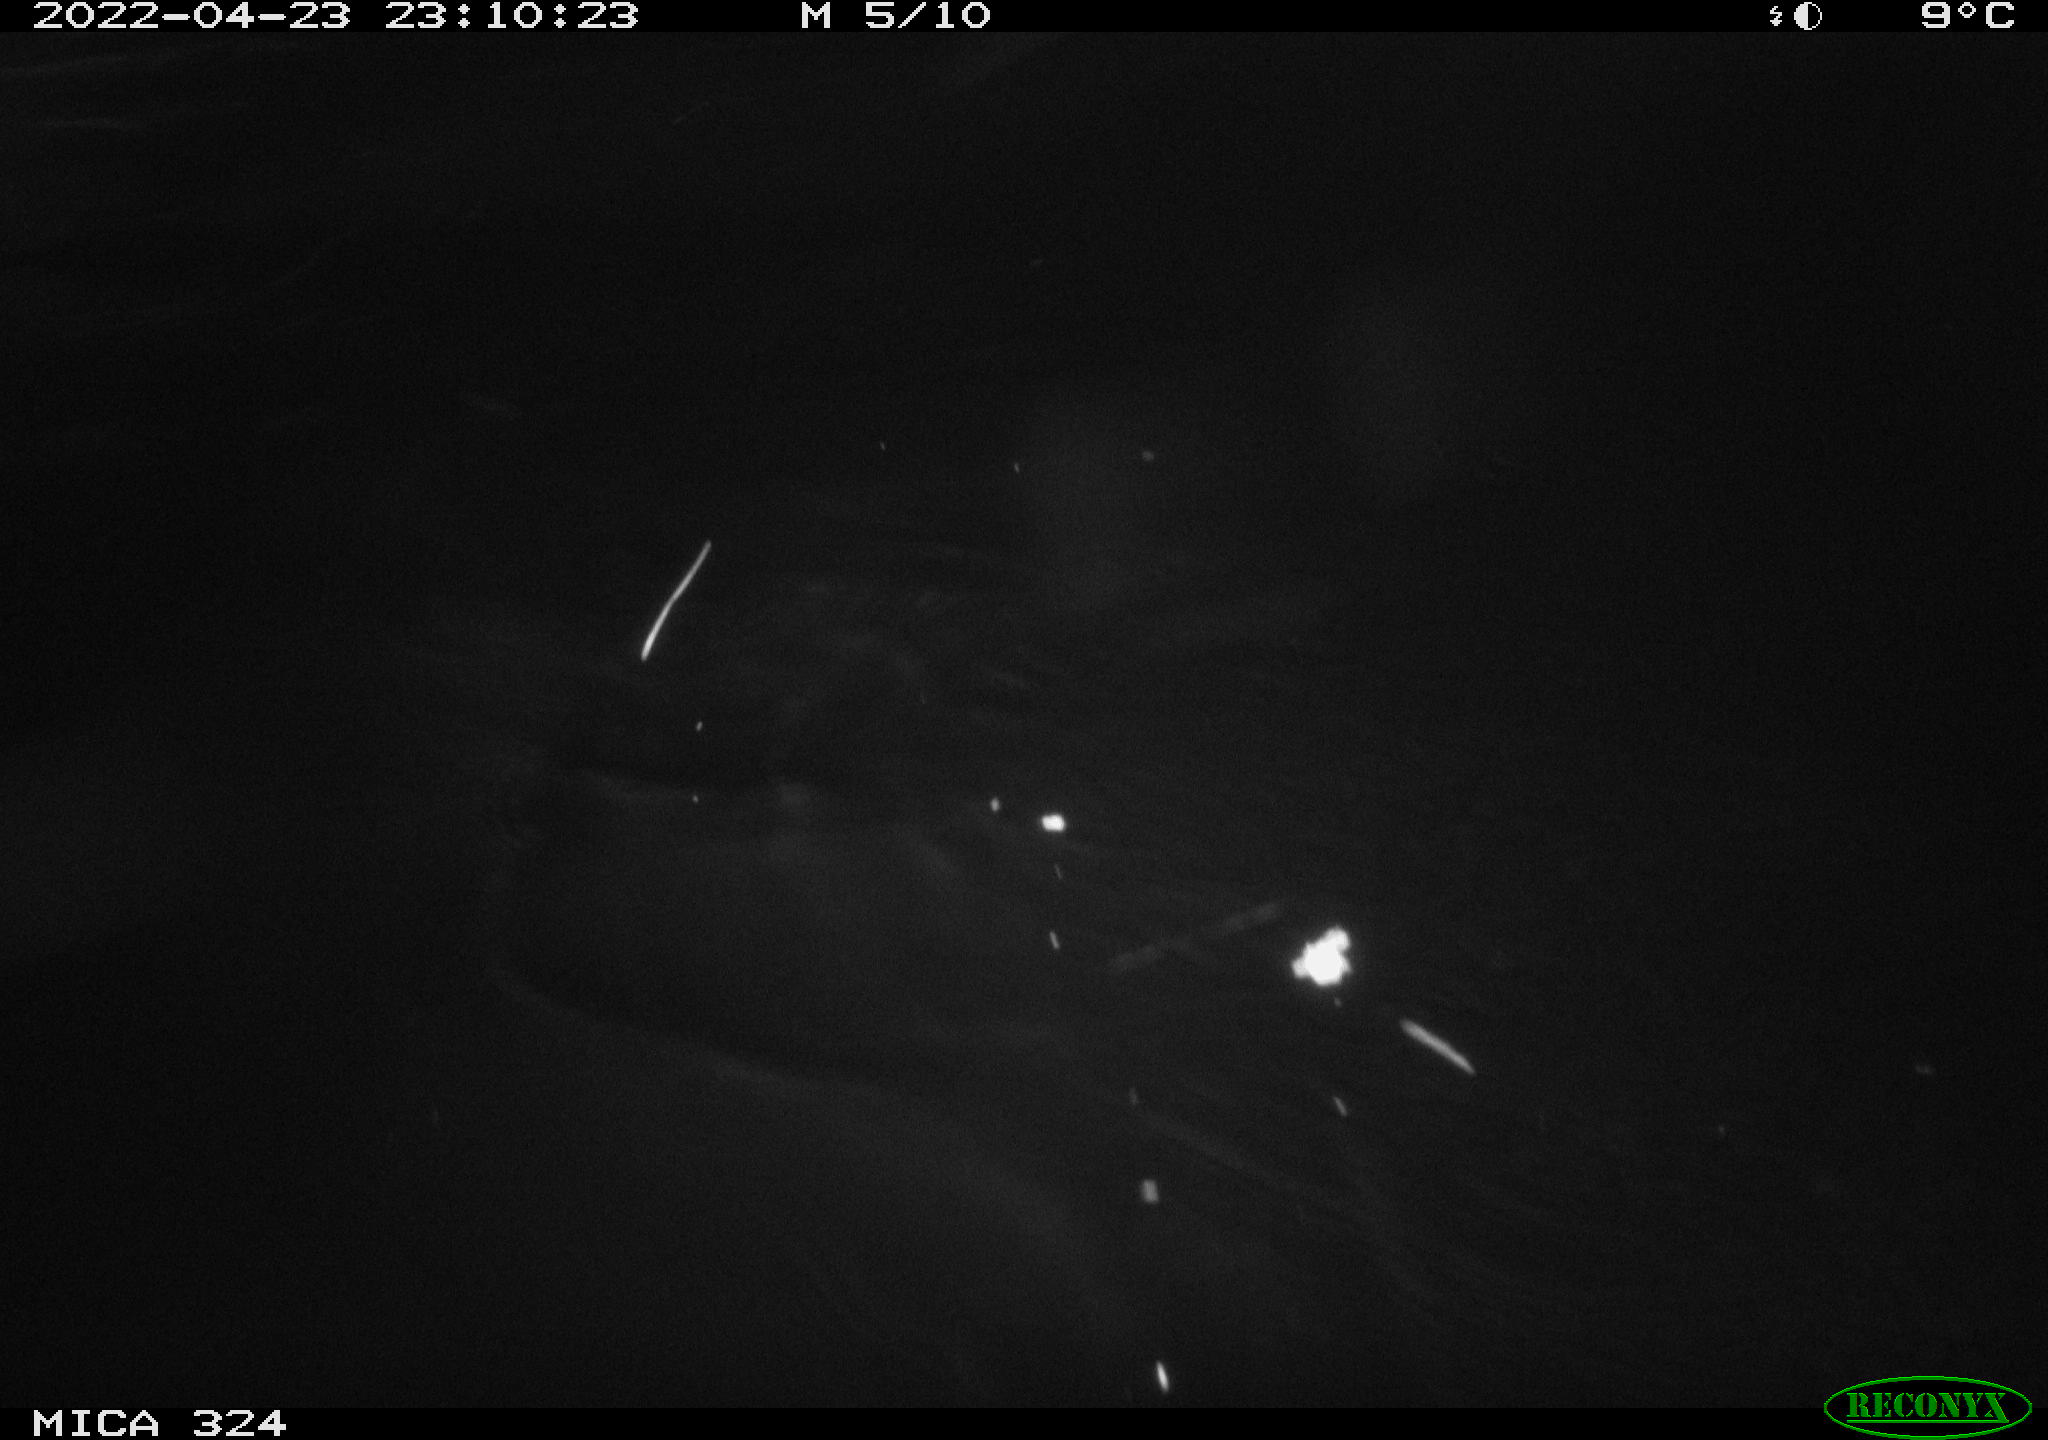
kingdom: Animalia
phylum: Chordata
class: Mammalia
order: Rodentia
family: Myocastoridae
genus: Myocastor
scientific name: Myocastor coypus
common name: Coypu
